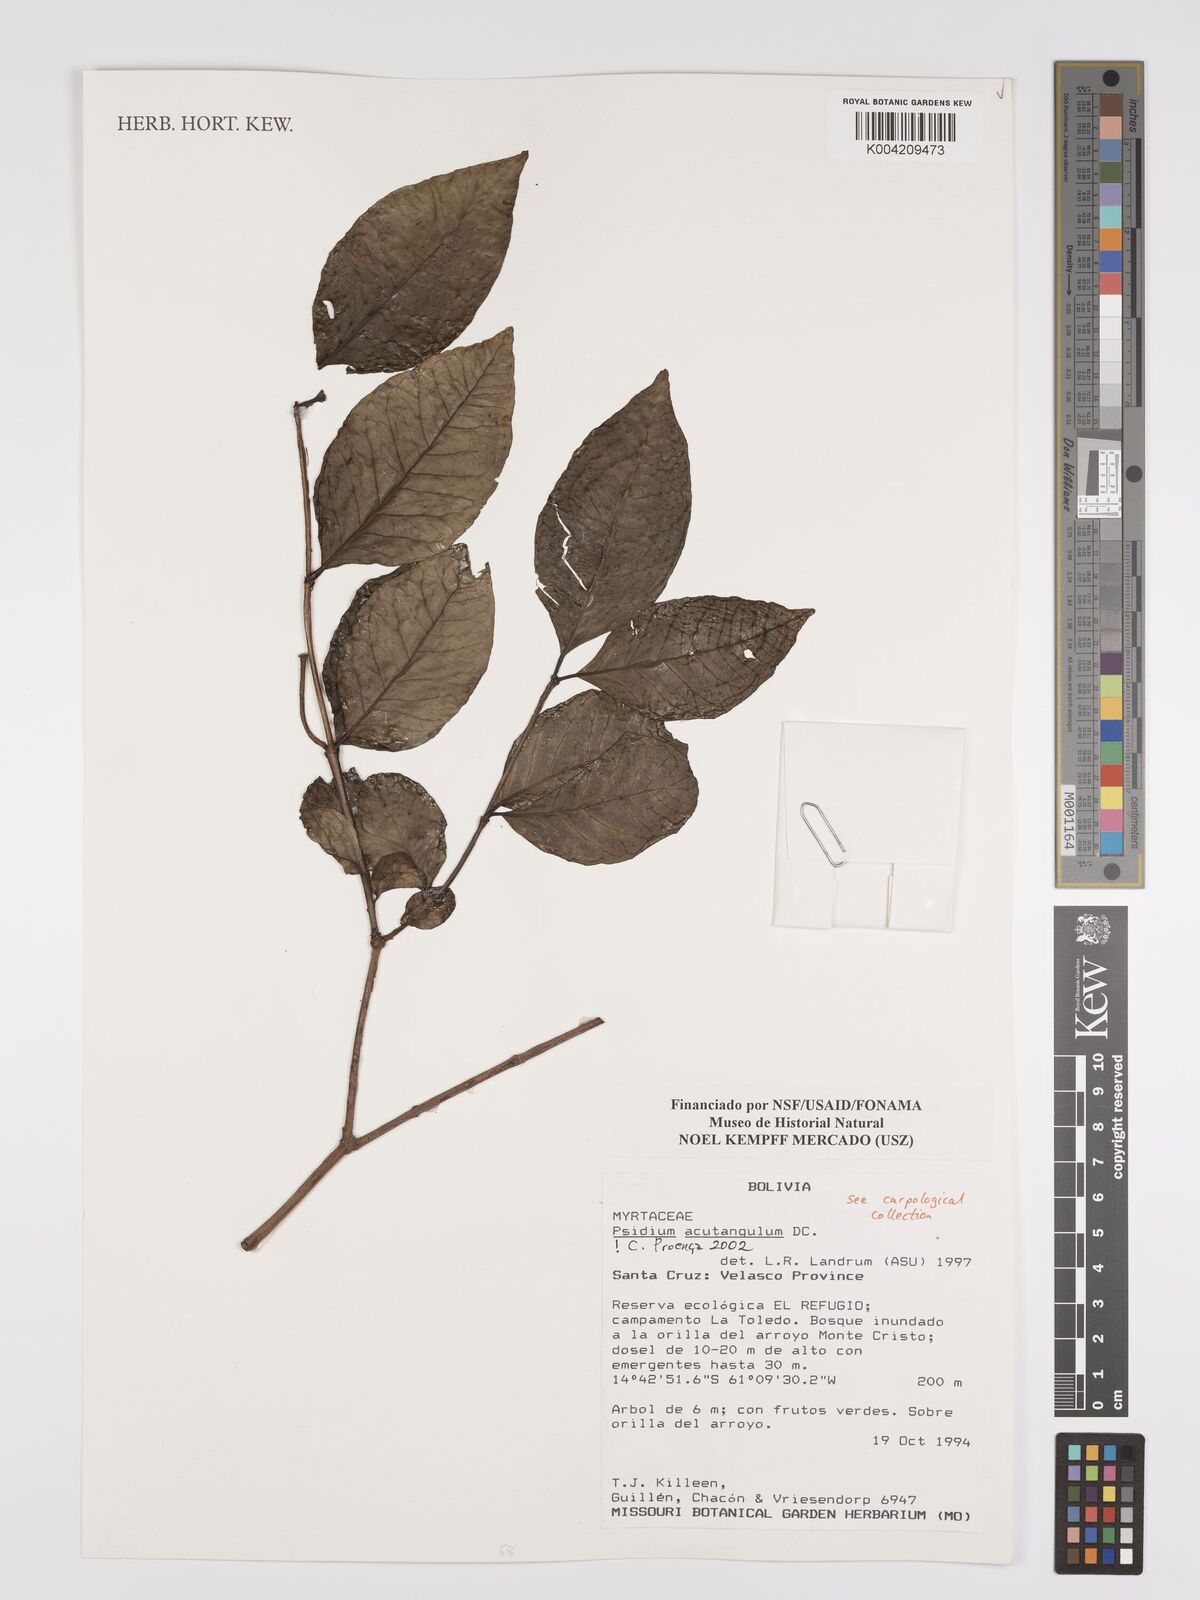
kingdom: Plantae
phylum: Tracheophyta
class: Magnoliopsida
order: Myrtales
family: Myrtaceae
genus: Psidium
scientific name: Psidium acutangulum
